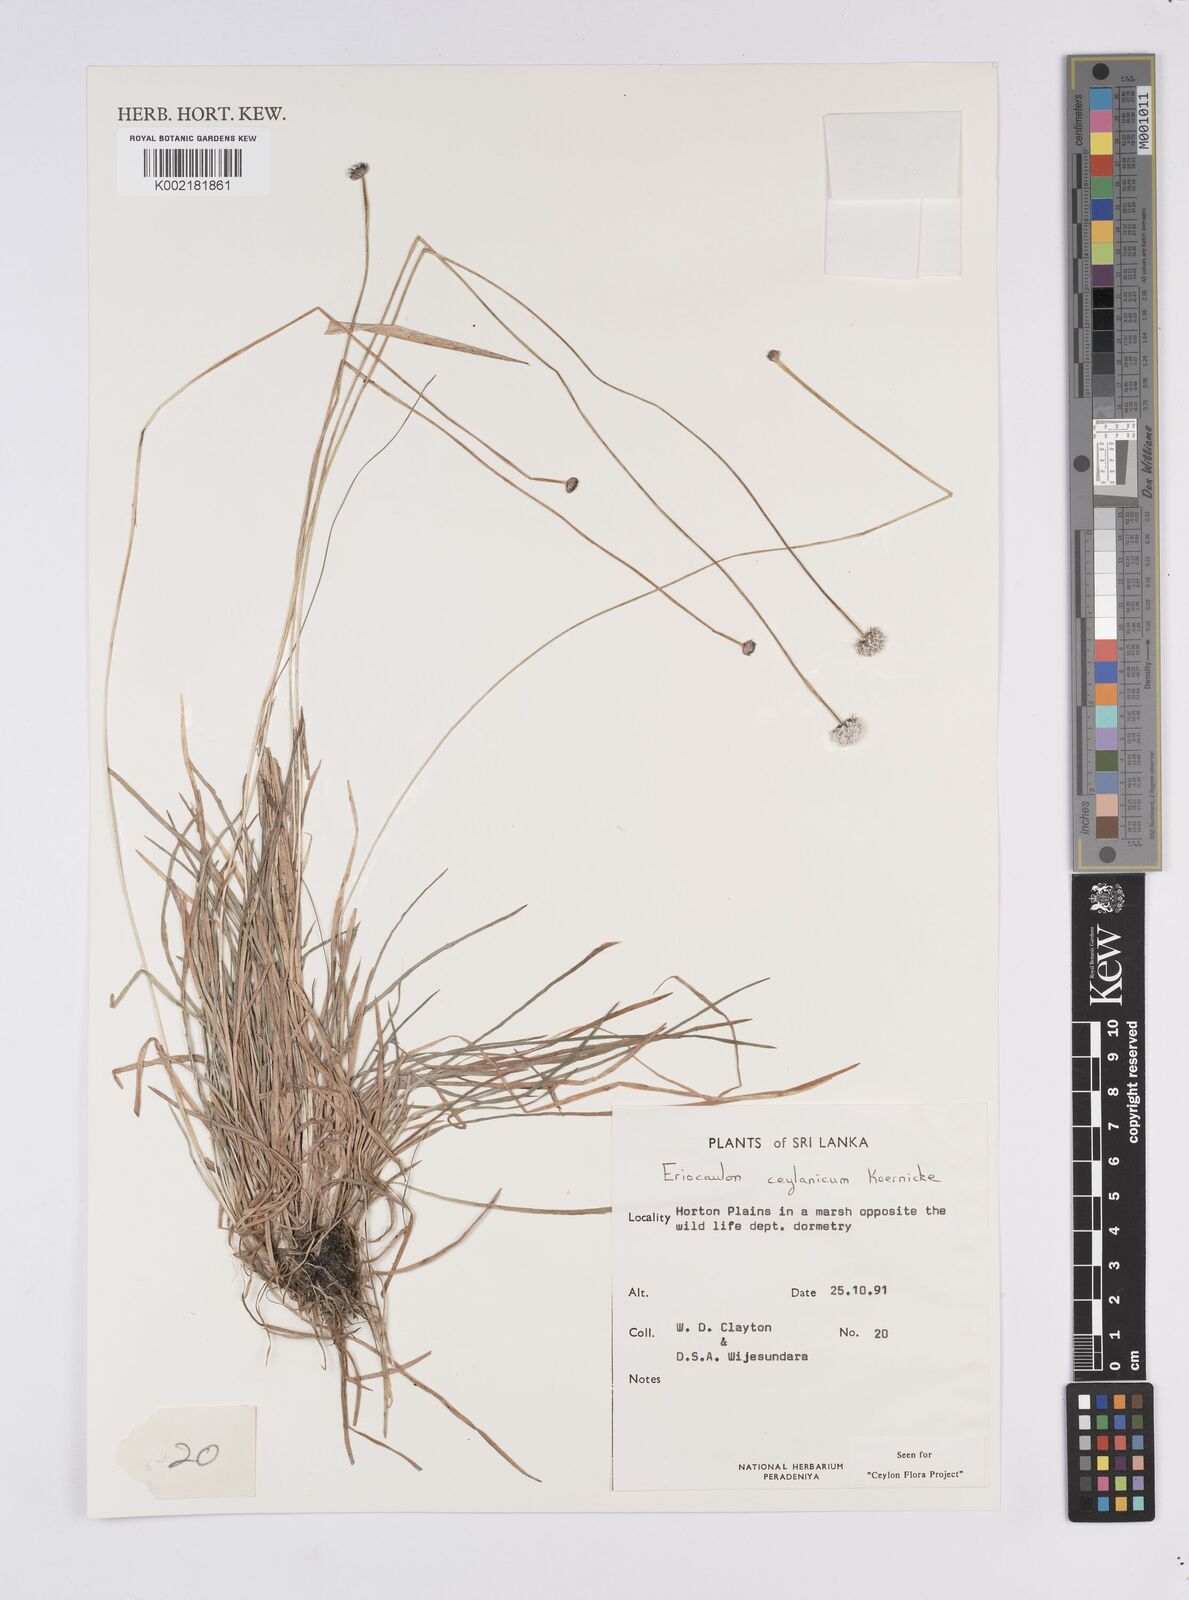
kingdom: Plantae
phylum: Tracheophyta
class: Liliopsida
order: Poales
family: Eriocaulaceae
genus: Eriocaulon
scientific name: Eriocaulon ceylanicum
